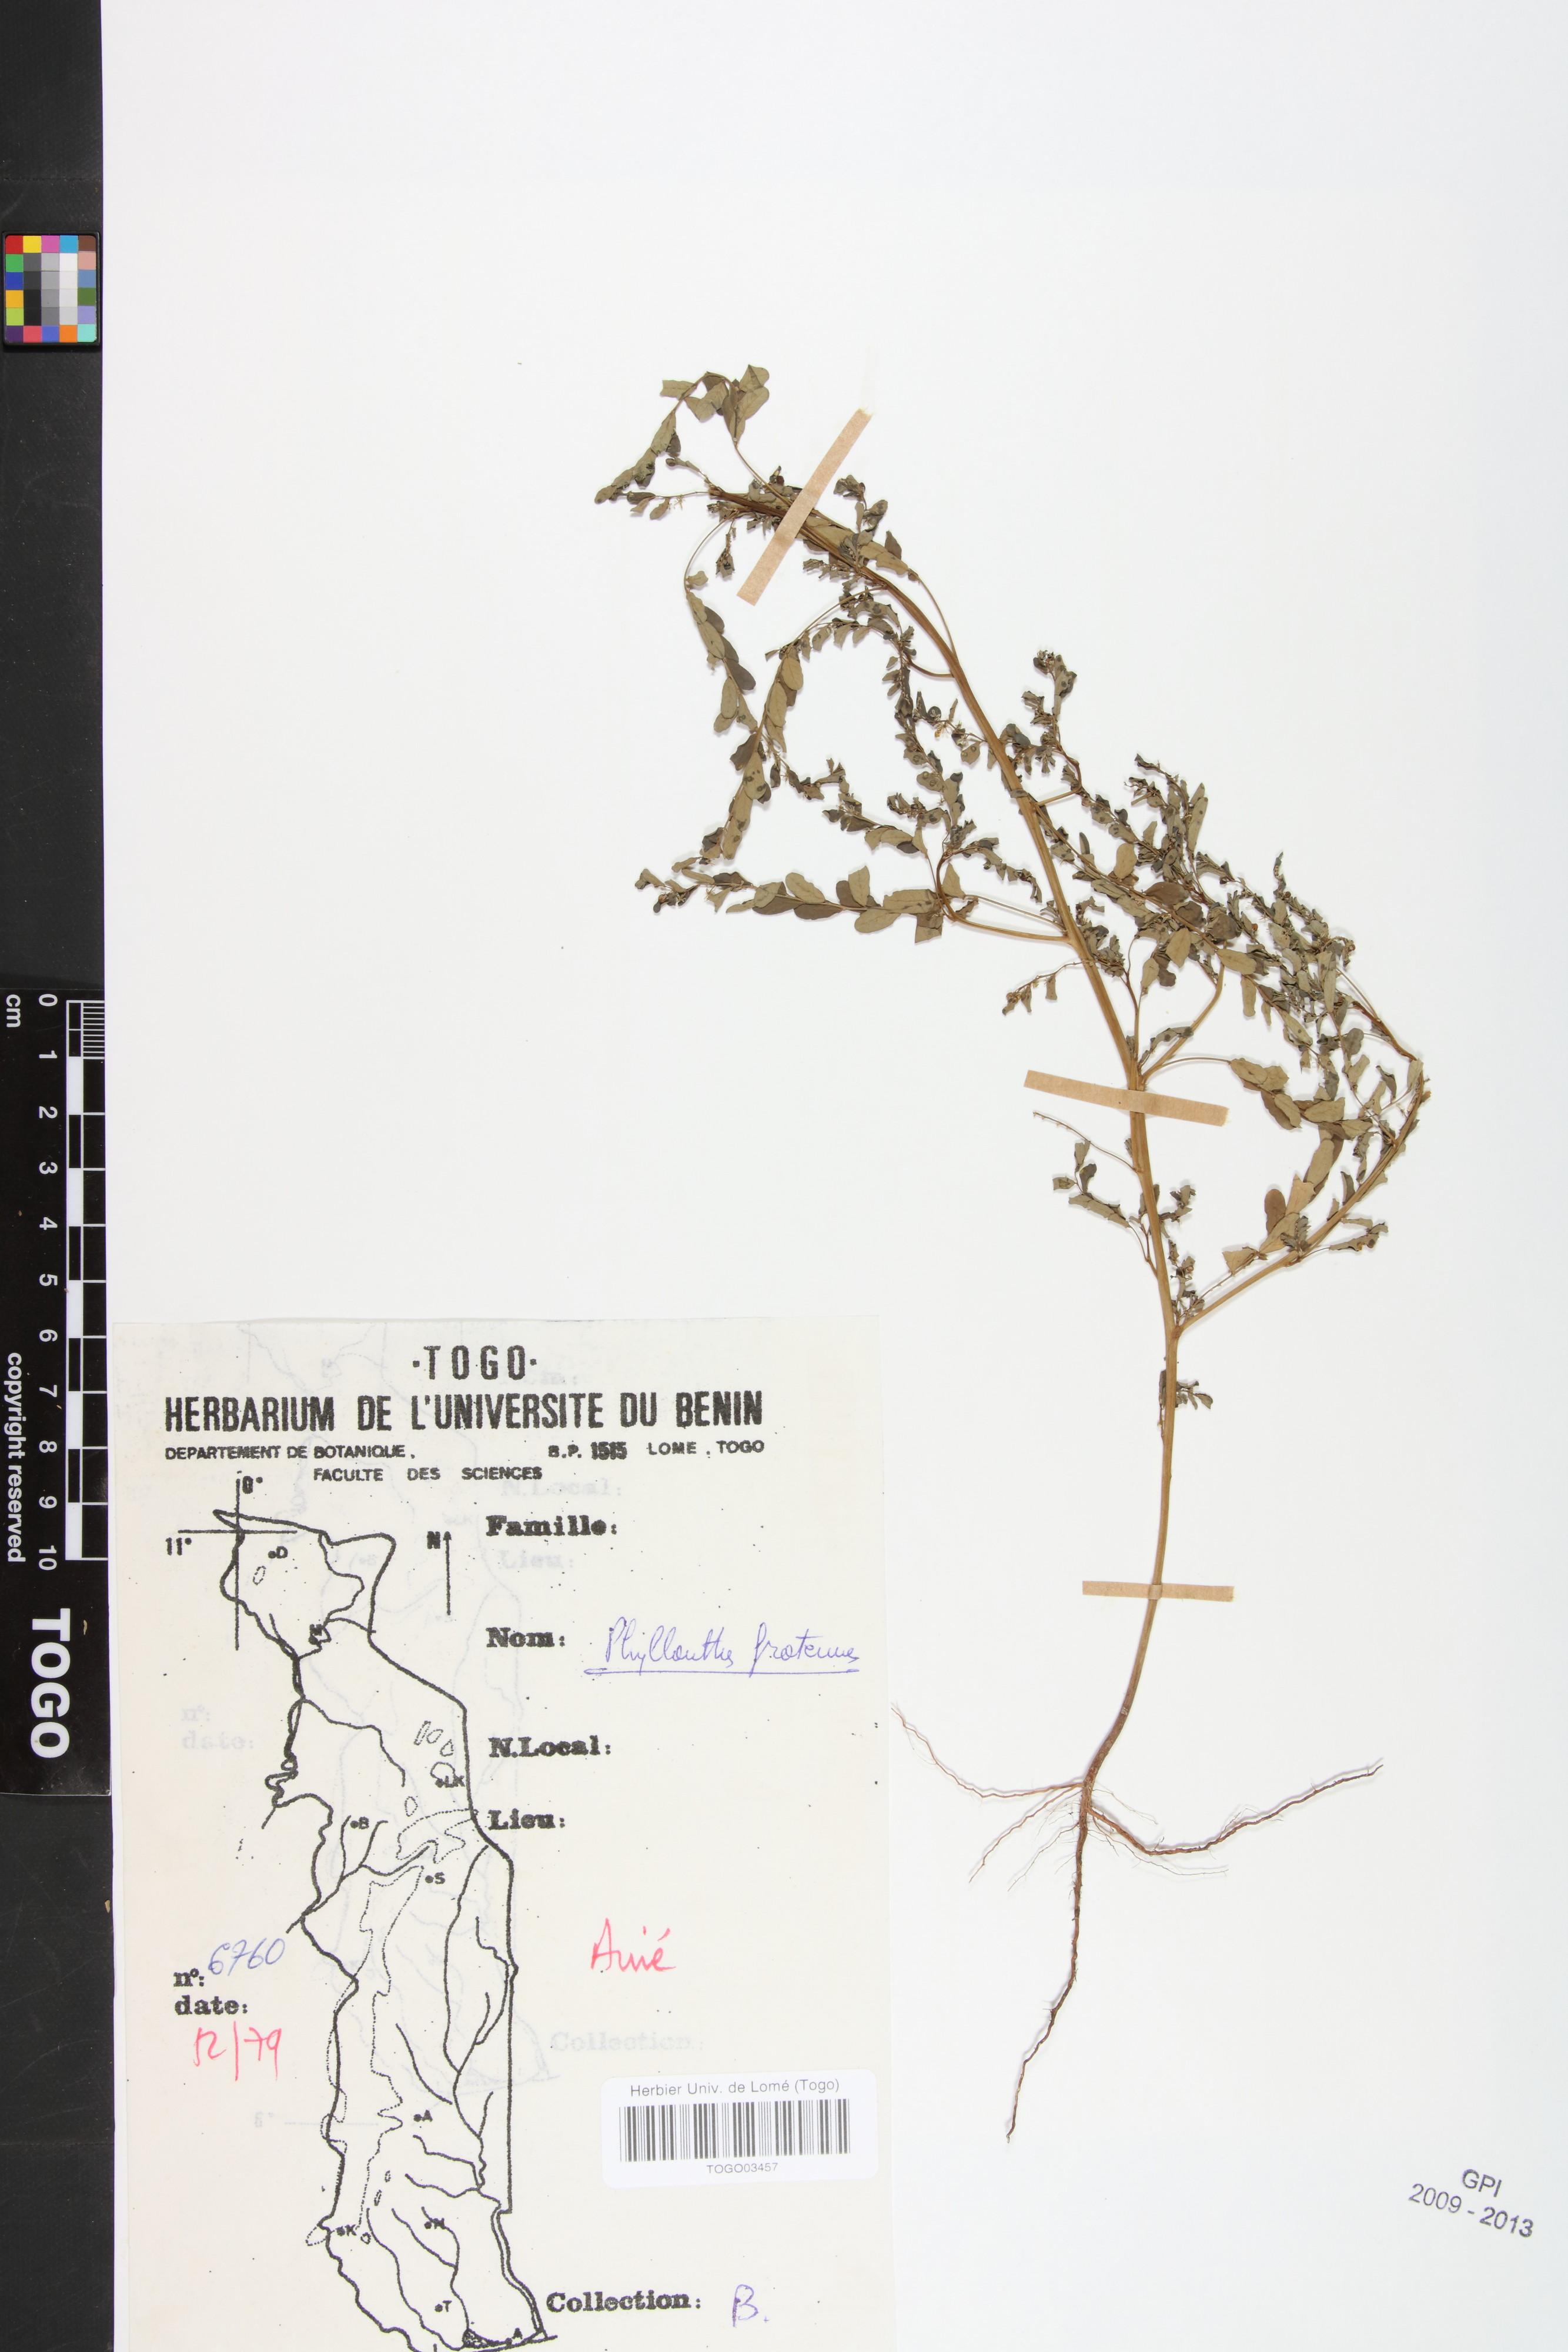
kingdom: Plantae
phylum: Tracheophyta
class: Magnoliopsida
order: Malpighiales
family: Phyllanthaceae
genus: Phyllanthus
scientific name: Phyllanthus fraternus
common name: Gulf leaf-flower
